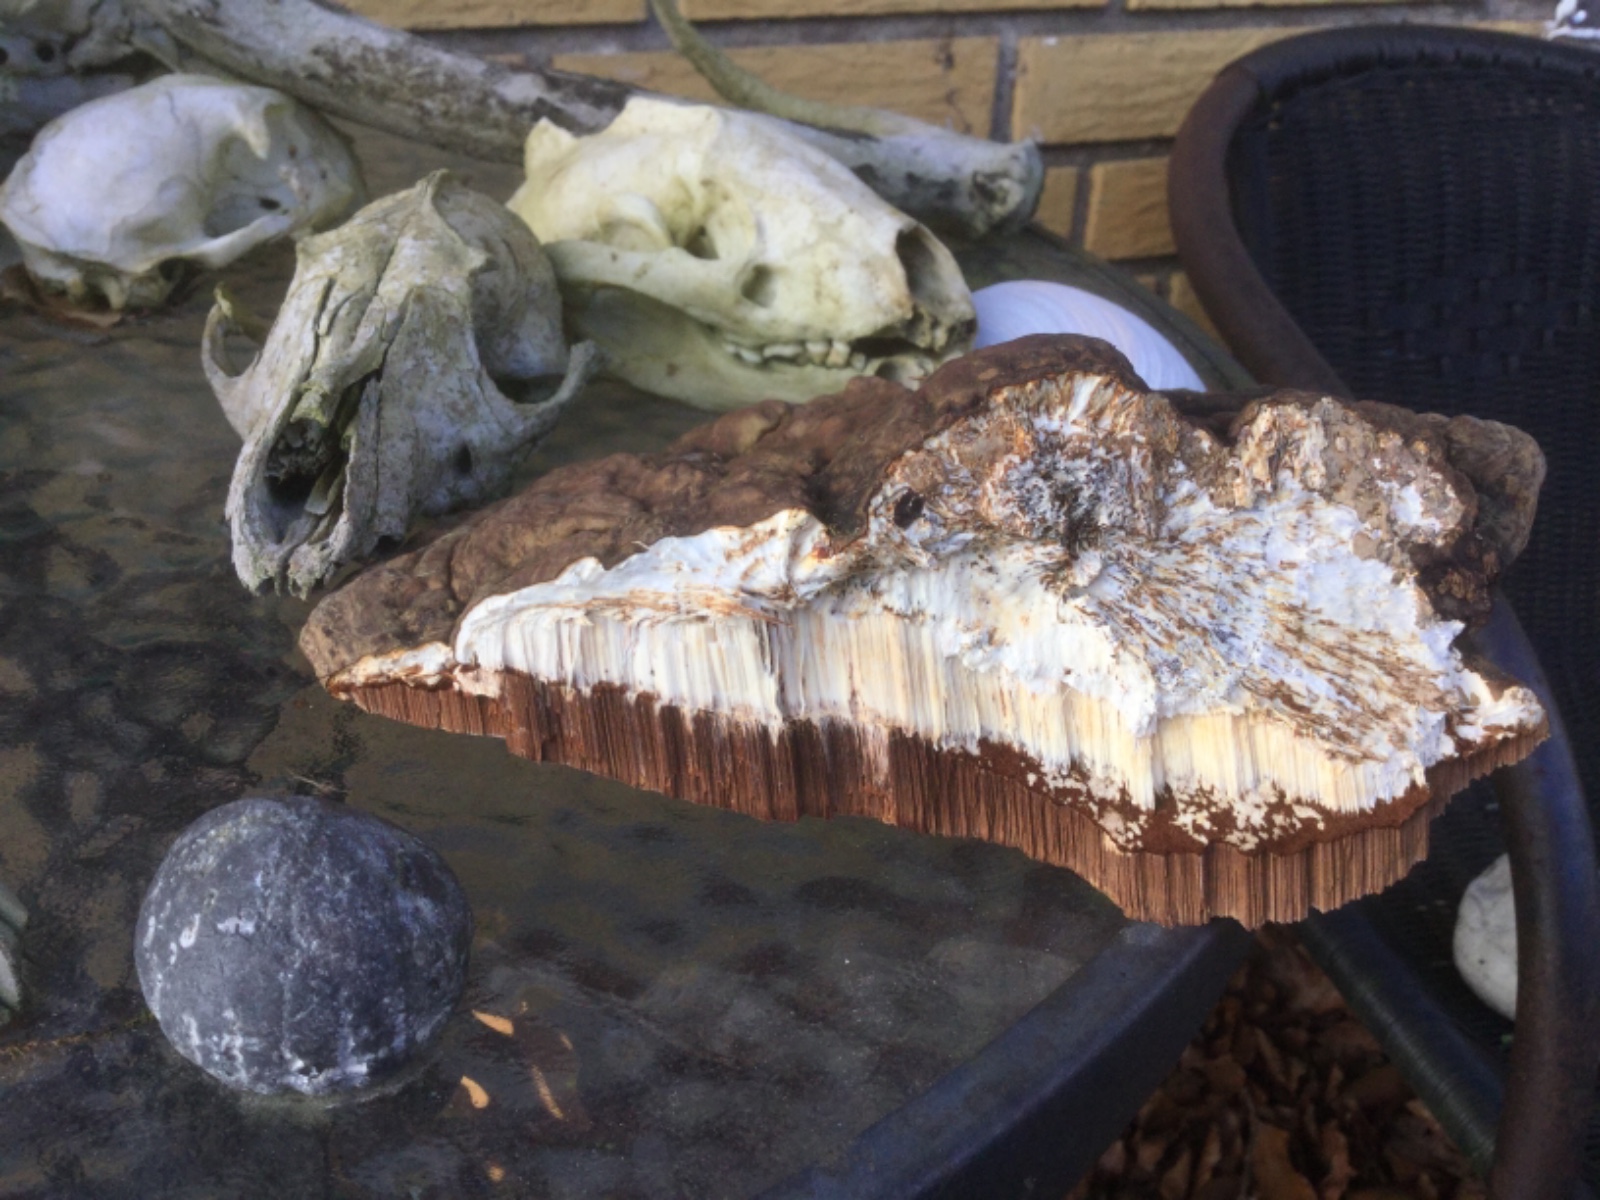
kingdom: Fungi
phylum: Basidiomycota
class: Agaricomycetes
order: Polyporales
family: Polyporaceae
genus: Ganoderma
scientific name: Ganoderma applanatum
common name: flad lakporesvamp
